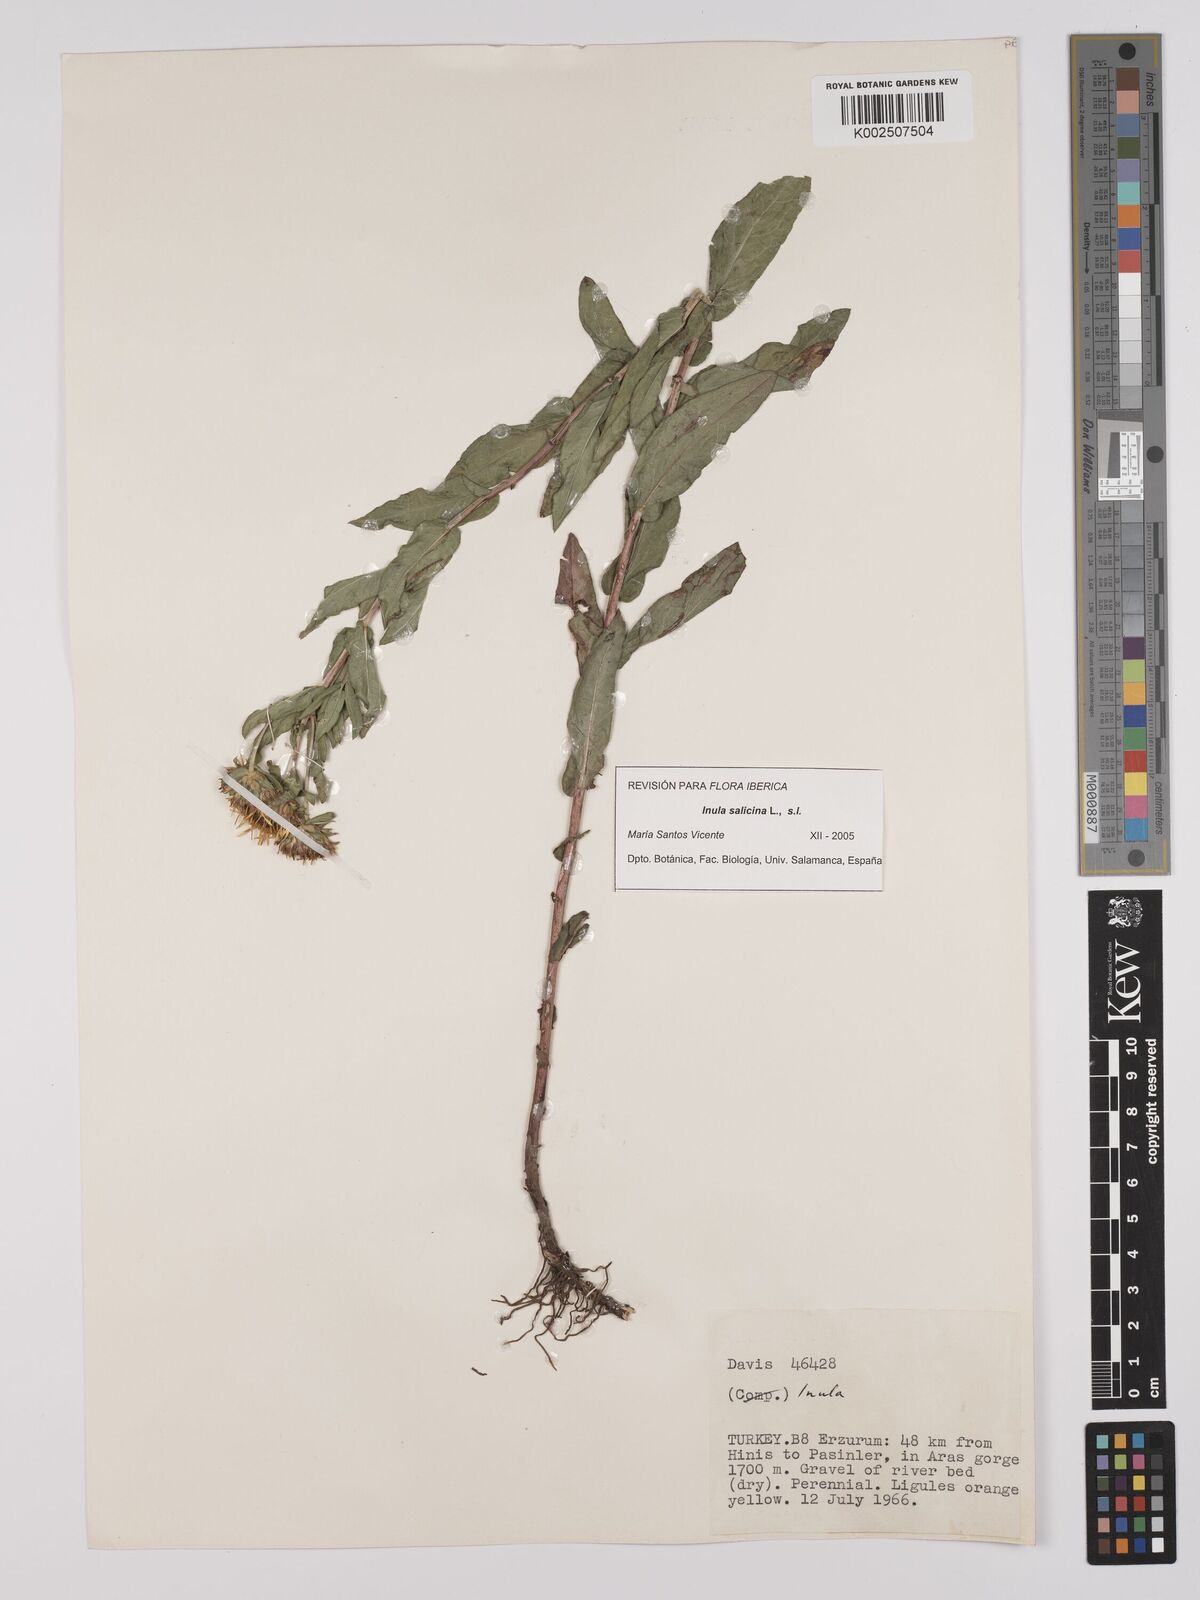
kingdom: Plantae
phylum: Tracheophyta
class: Magnoliopsida
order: Asterales
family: Asteraceae
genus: Pentanema
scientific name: Pentanema salicinum
